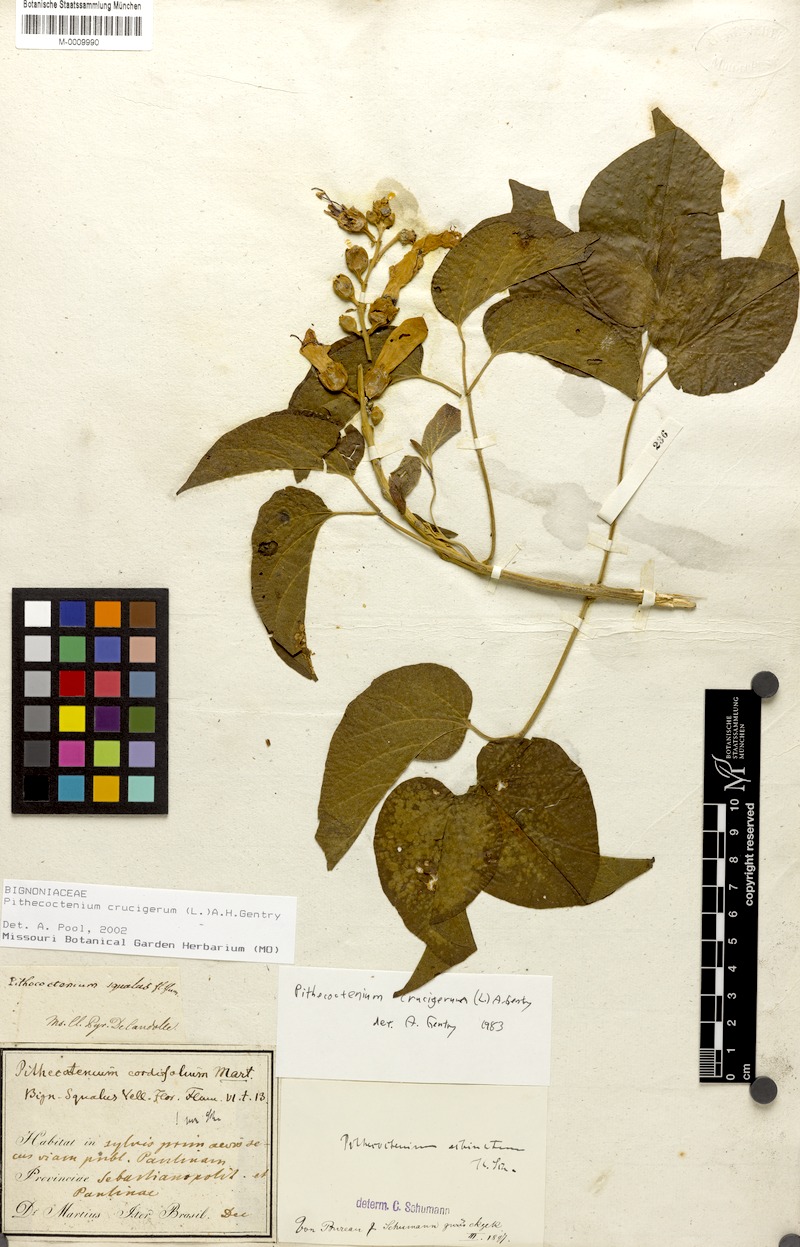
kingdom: Plantae
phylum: Tracheophyta
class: Magnoliopsida
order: Lamiales
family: Bignoniaceae
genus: Amphilophium
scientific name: Amphilophium crucigerum
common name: Monkey comb
